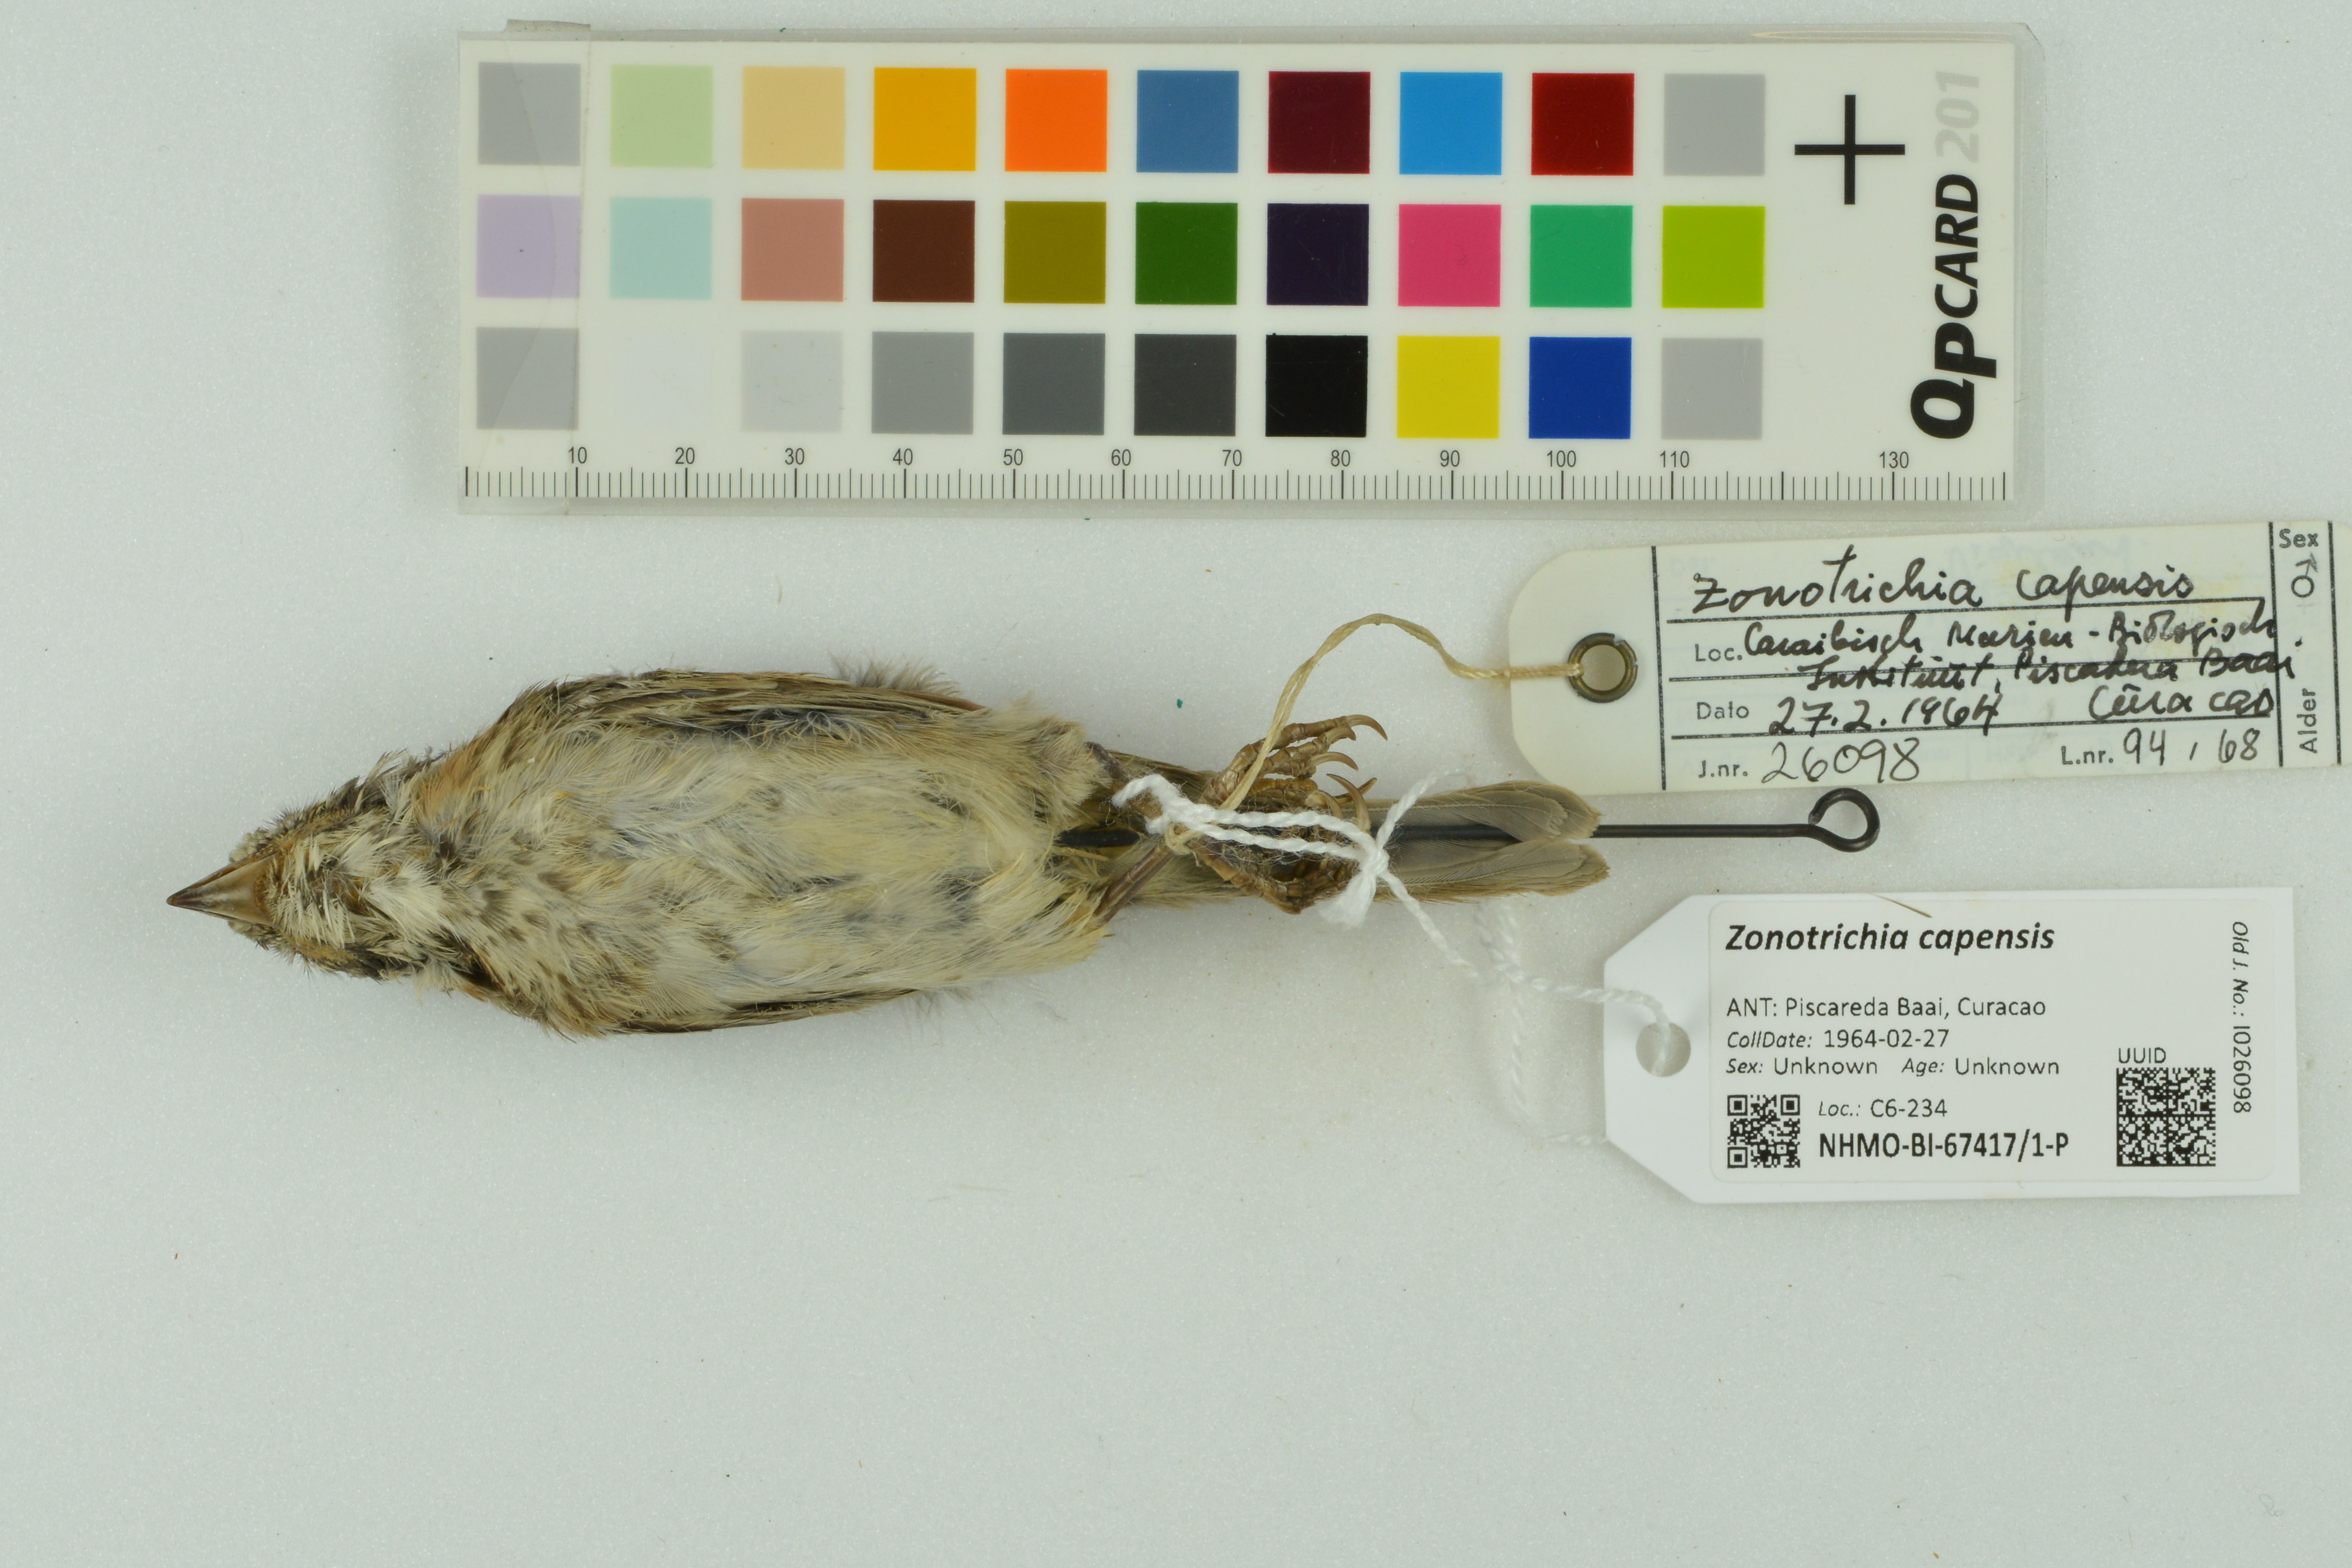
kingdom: Animalia
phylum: Chordata
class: Aves
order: Passeriformes
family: Passerellidae
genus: Zonotrichia
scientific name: Zonotrichia capensis
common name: Rufous-collared sparrow
